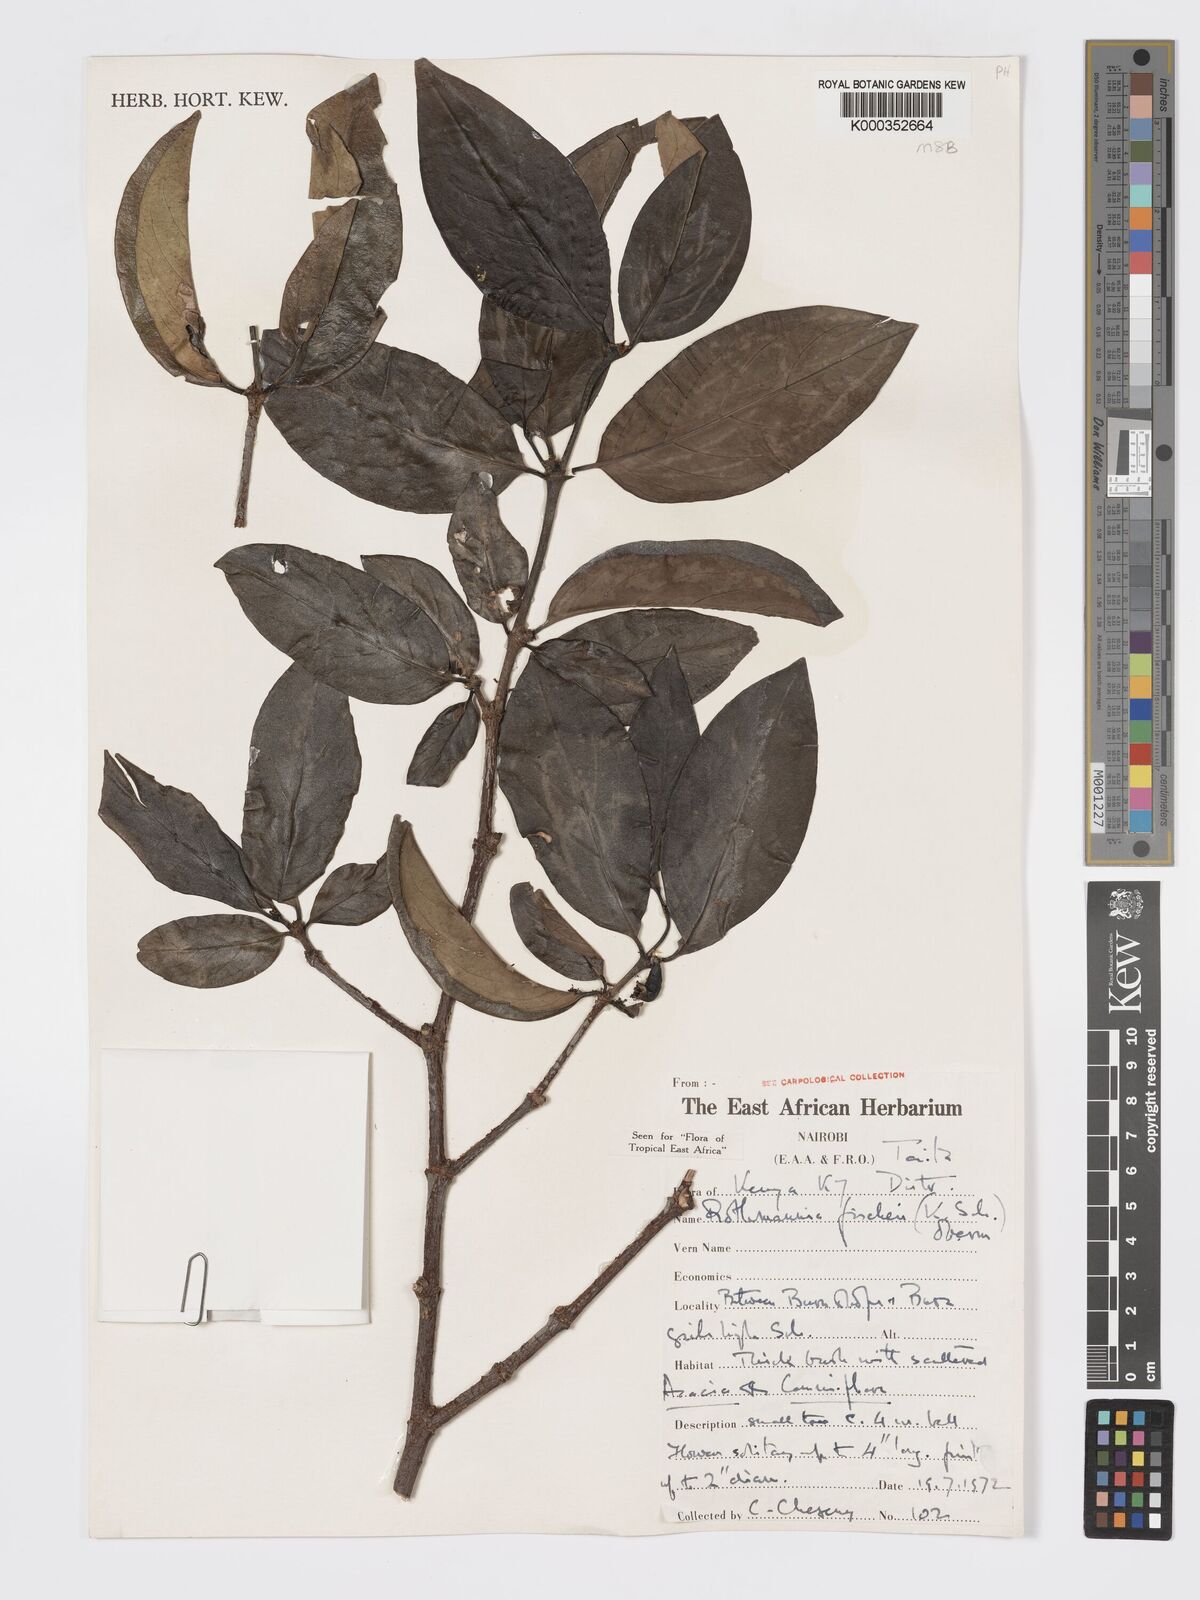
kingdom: Plantae
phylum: Tracheophyta
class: Magnoliopsida
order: Gentianales
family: Rubiaceae
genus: Rothmannia
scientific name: Rothmannia fischeri
